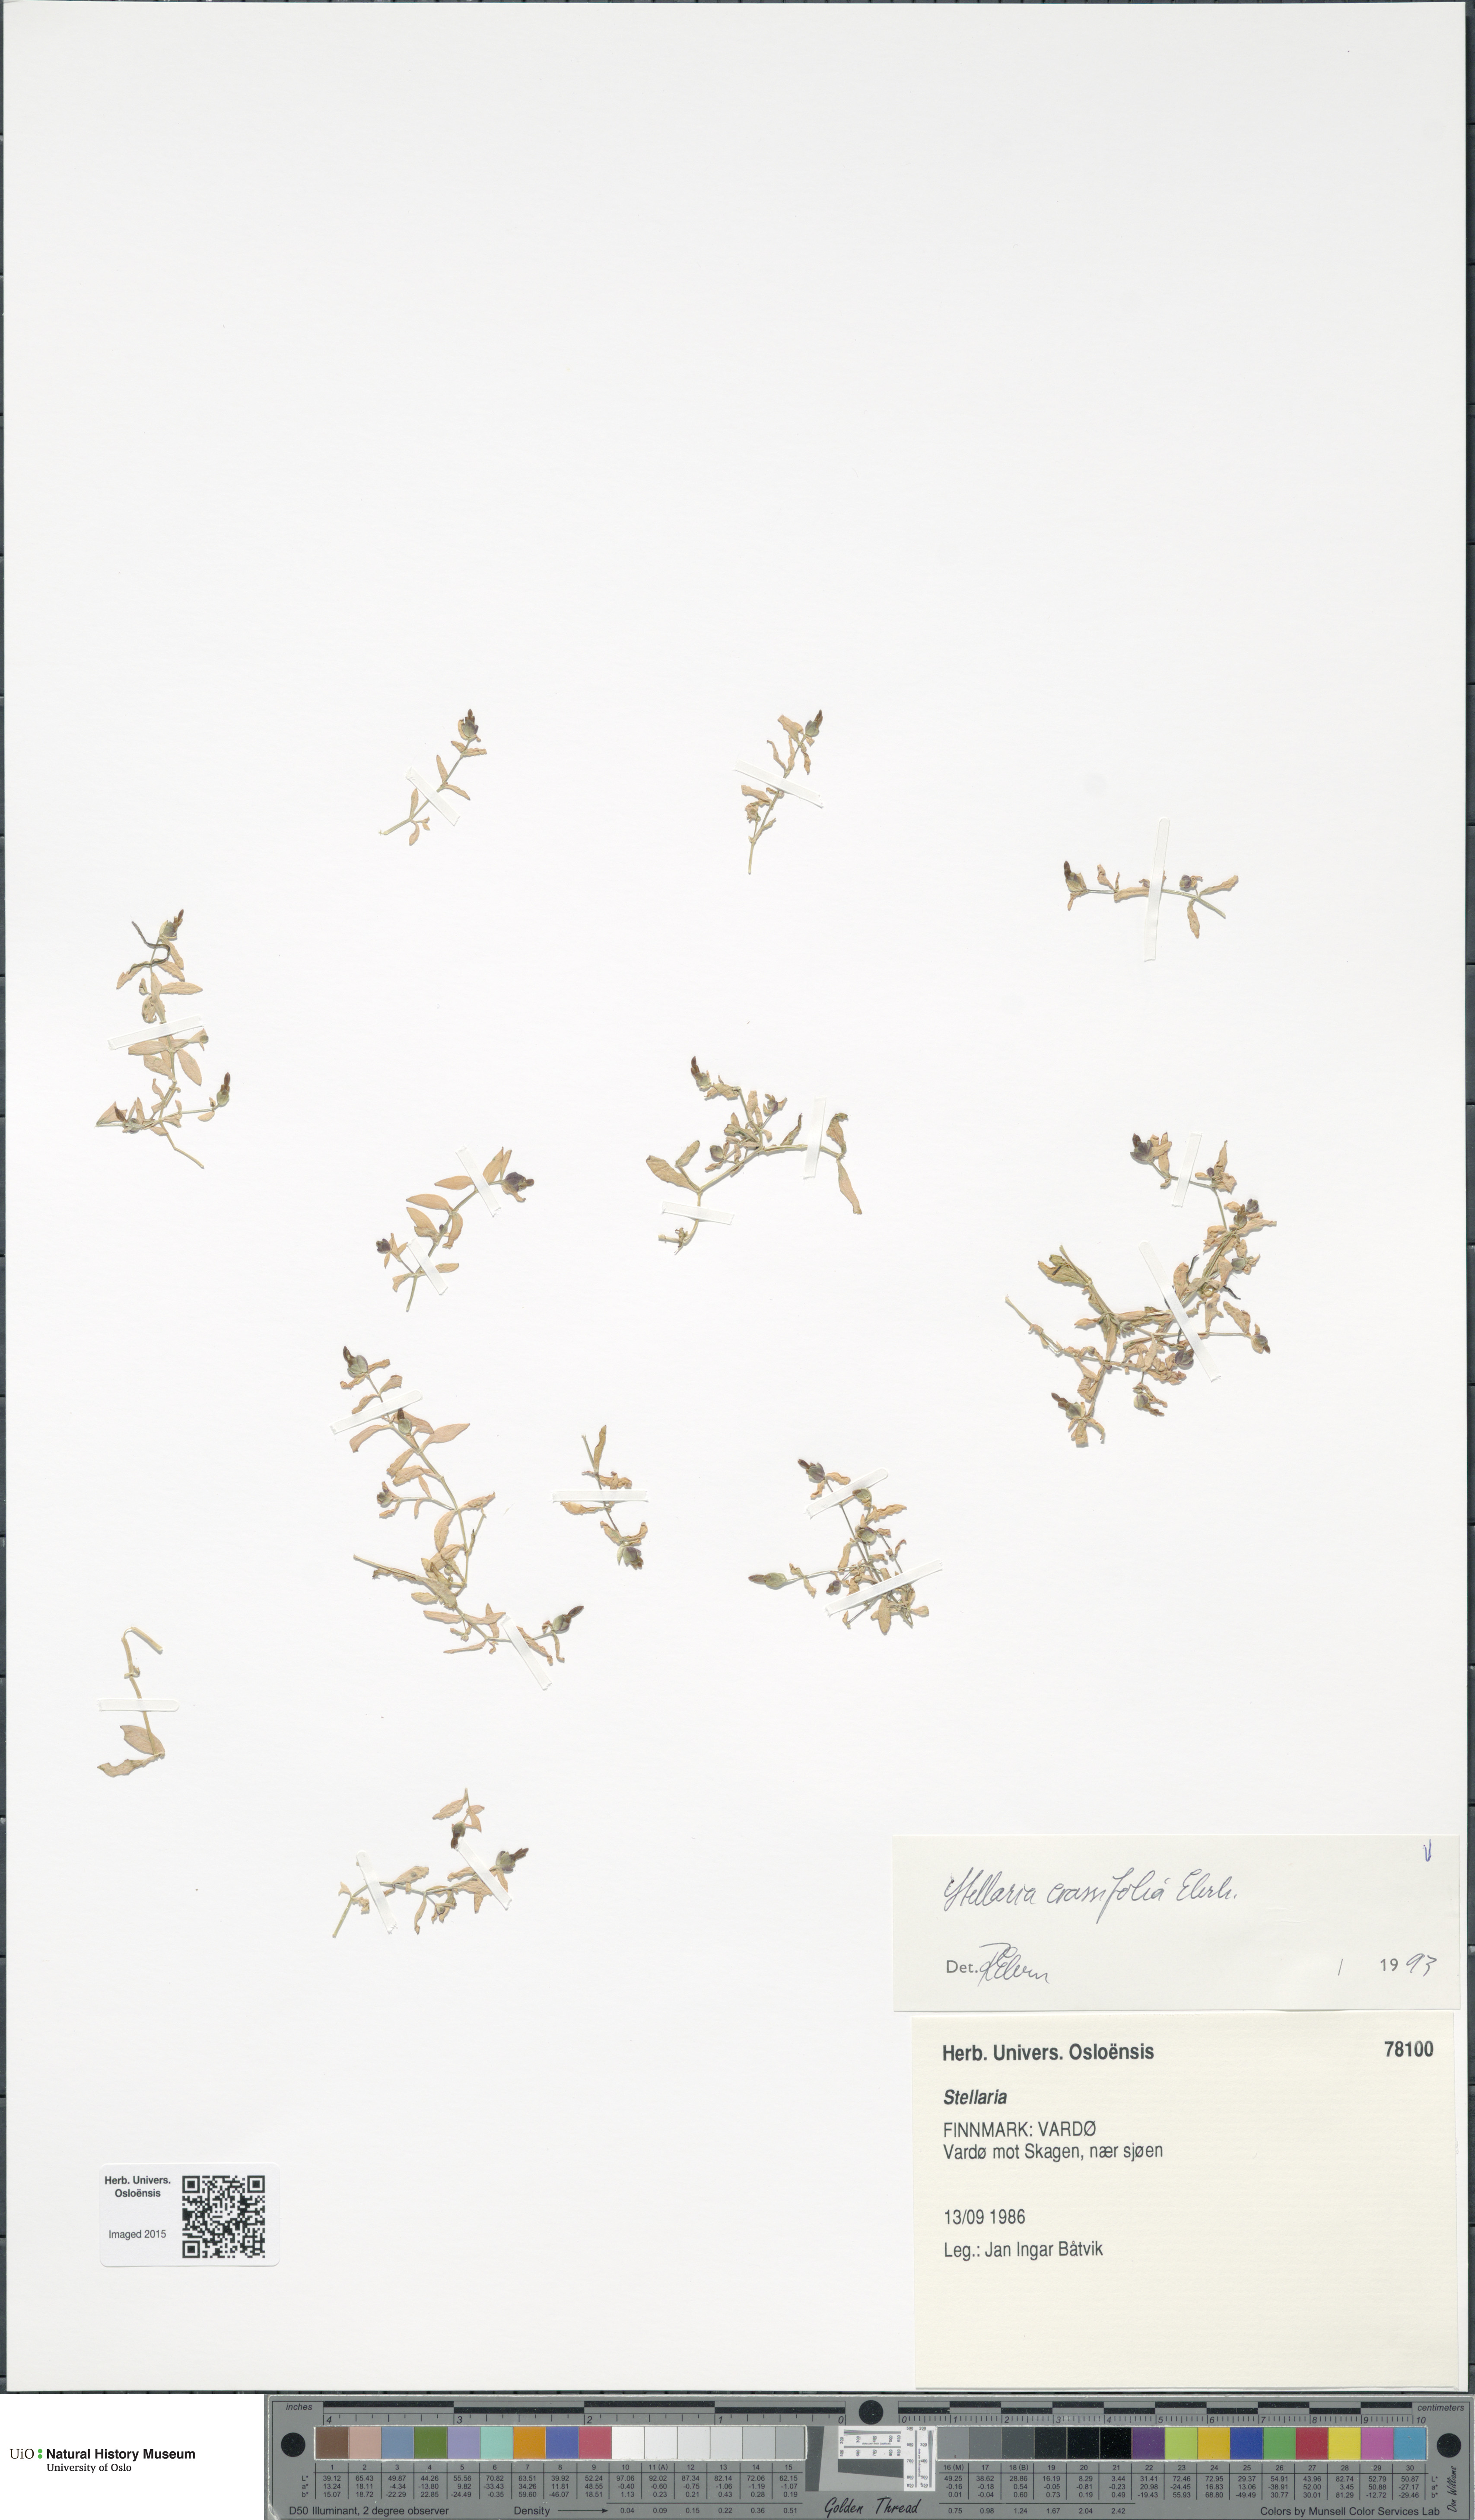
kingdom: Plantae
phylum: Tracheophyta
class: Magnoliopsida
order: Caryophyllales
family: Caryophyllaceae
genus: Stellaria
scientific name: Stellaria crassifolia
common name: Fleshy starwort
